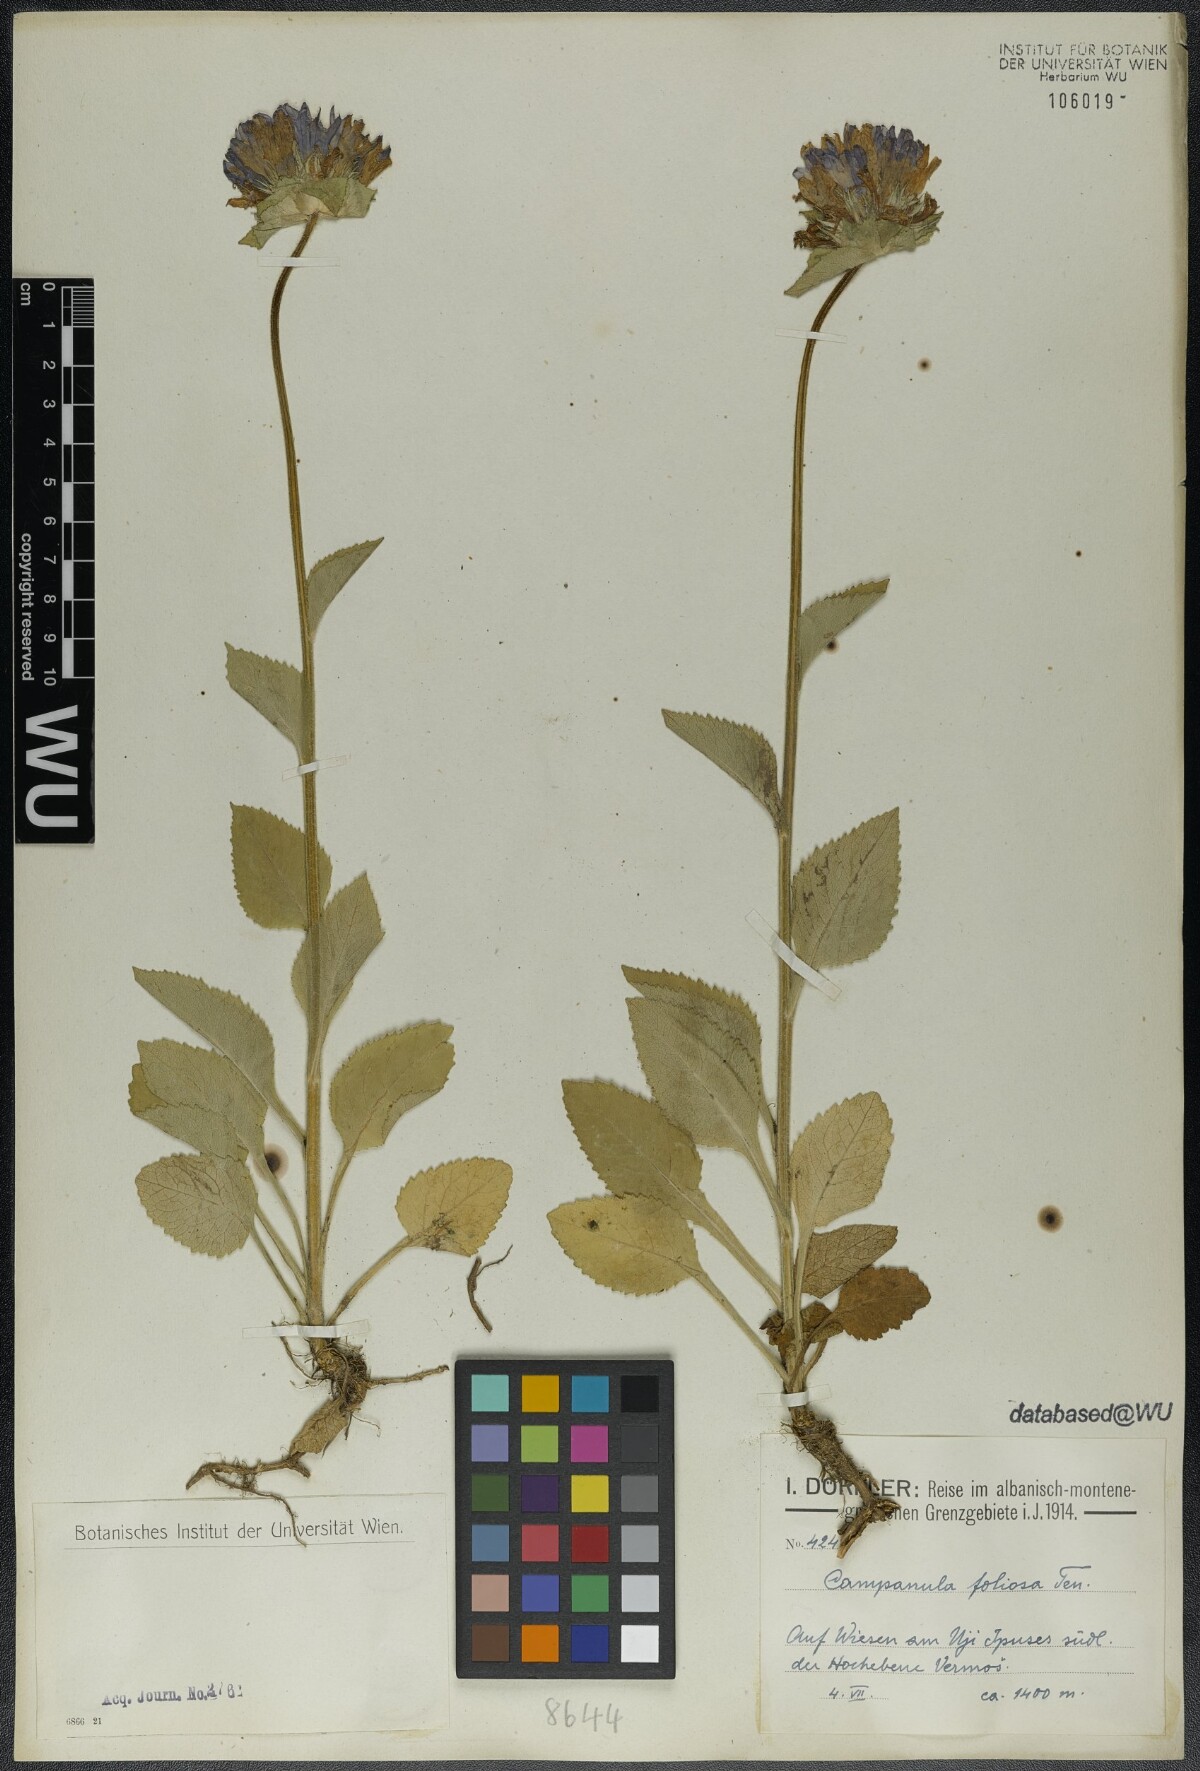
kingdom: Plantae
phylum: Tracheophyta
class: Magnoliopsida
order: Asterales
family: Campanulaceae
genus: Campanula
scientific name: Campanula foliosa
